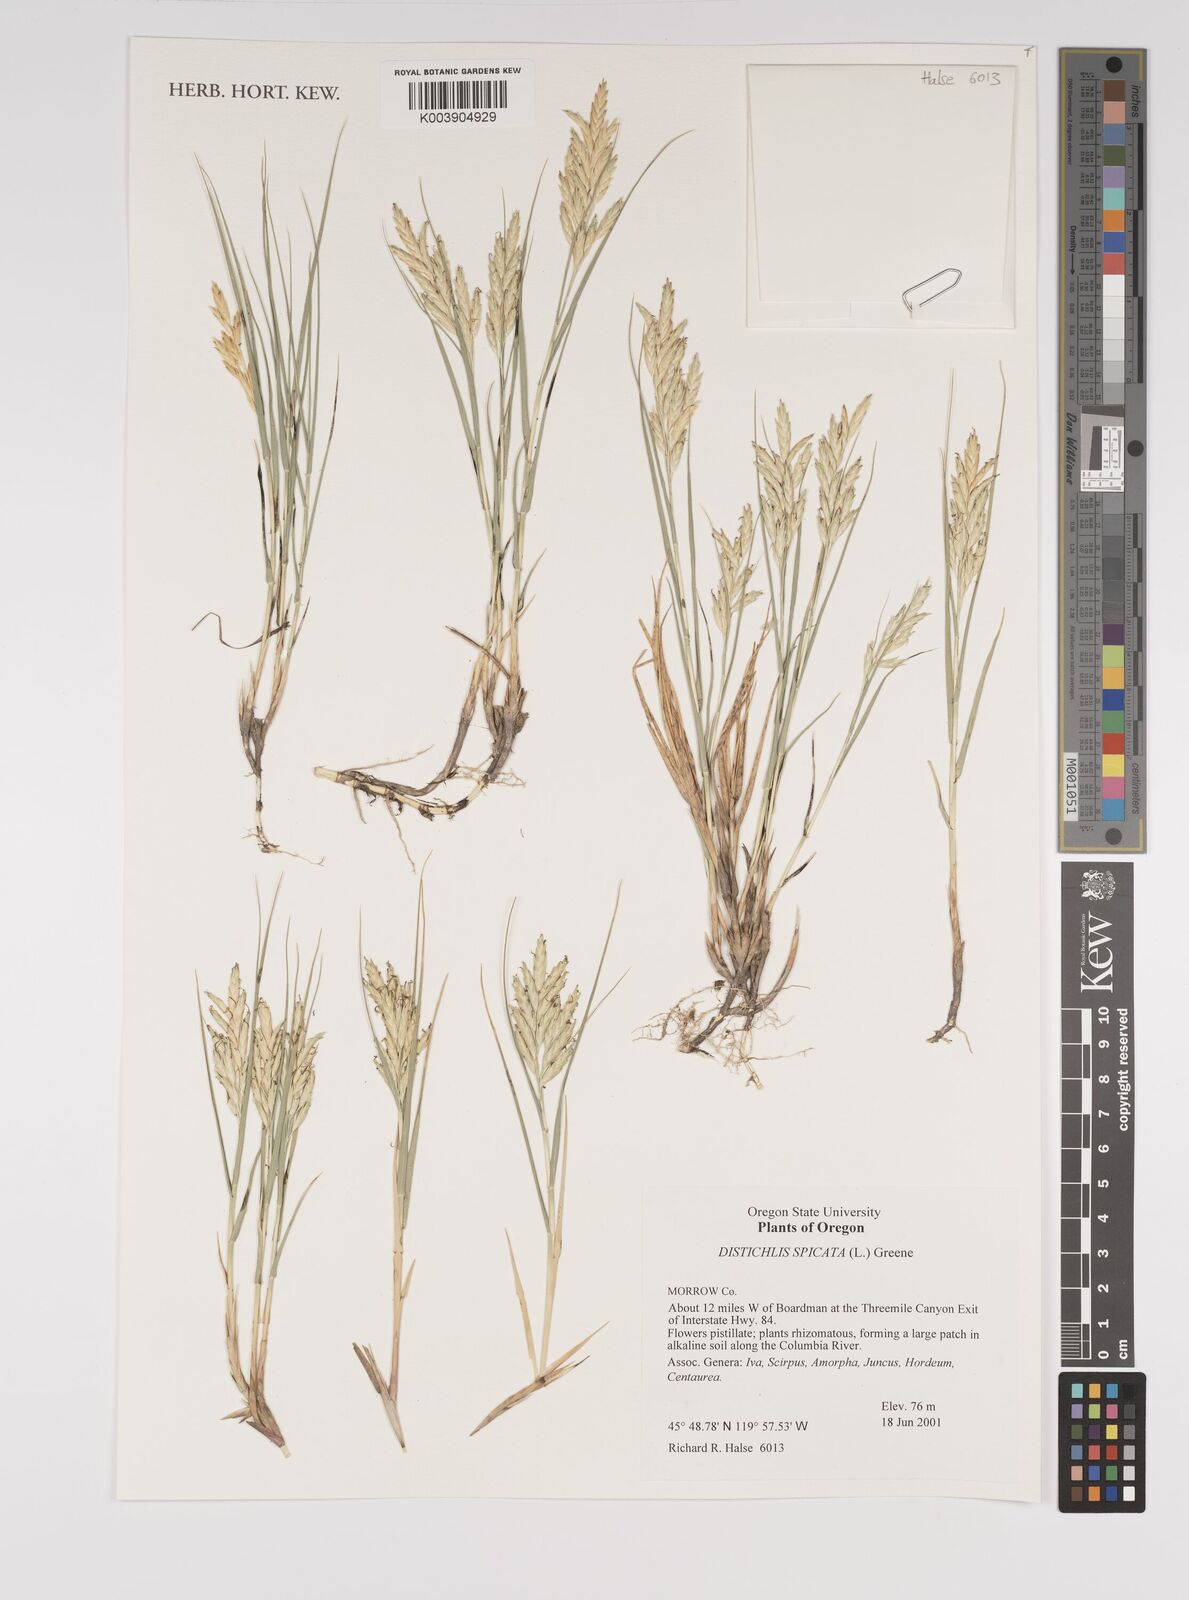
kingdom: Plantae
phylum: Tracheophyta
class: Liliopsida
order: Poales
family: Poaceae
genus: Distichlis
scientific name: Distichlis spicata
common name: Saltgrass
